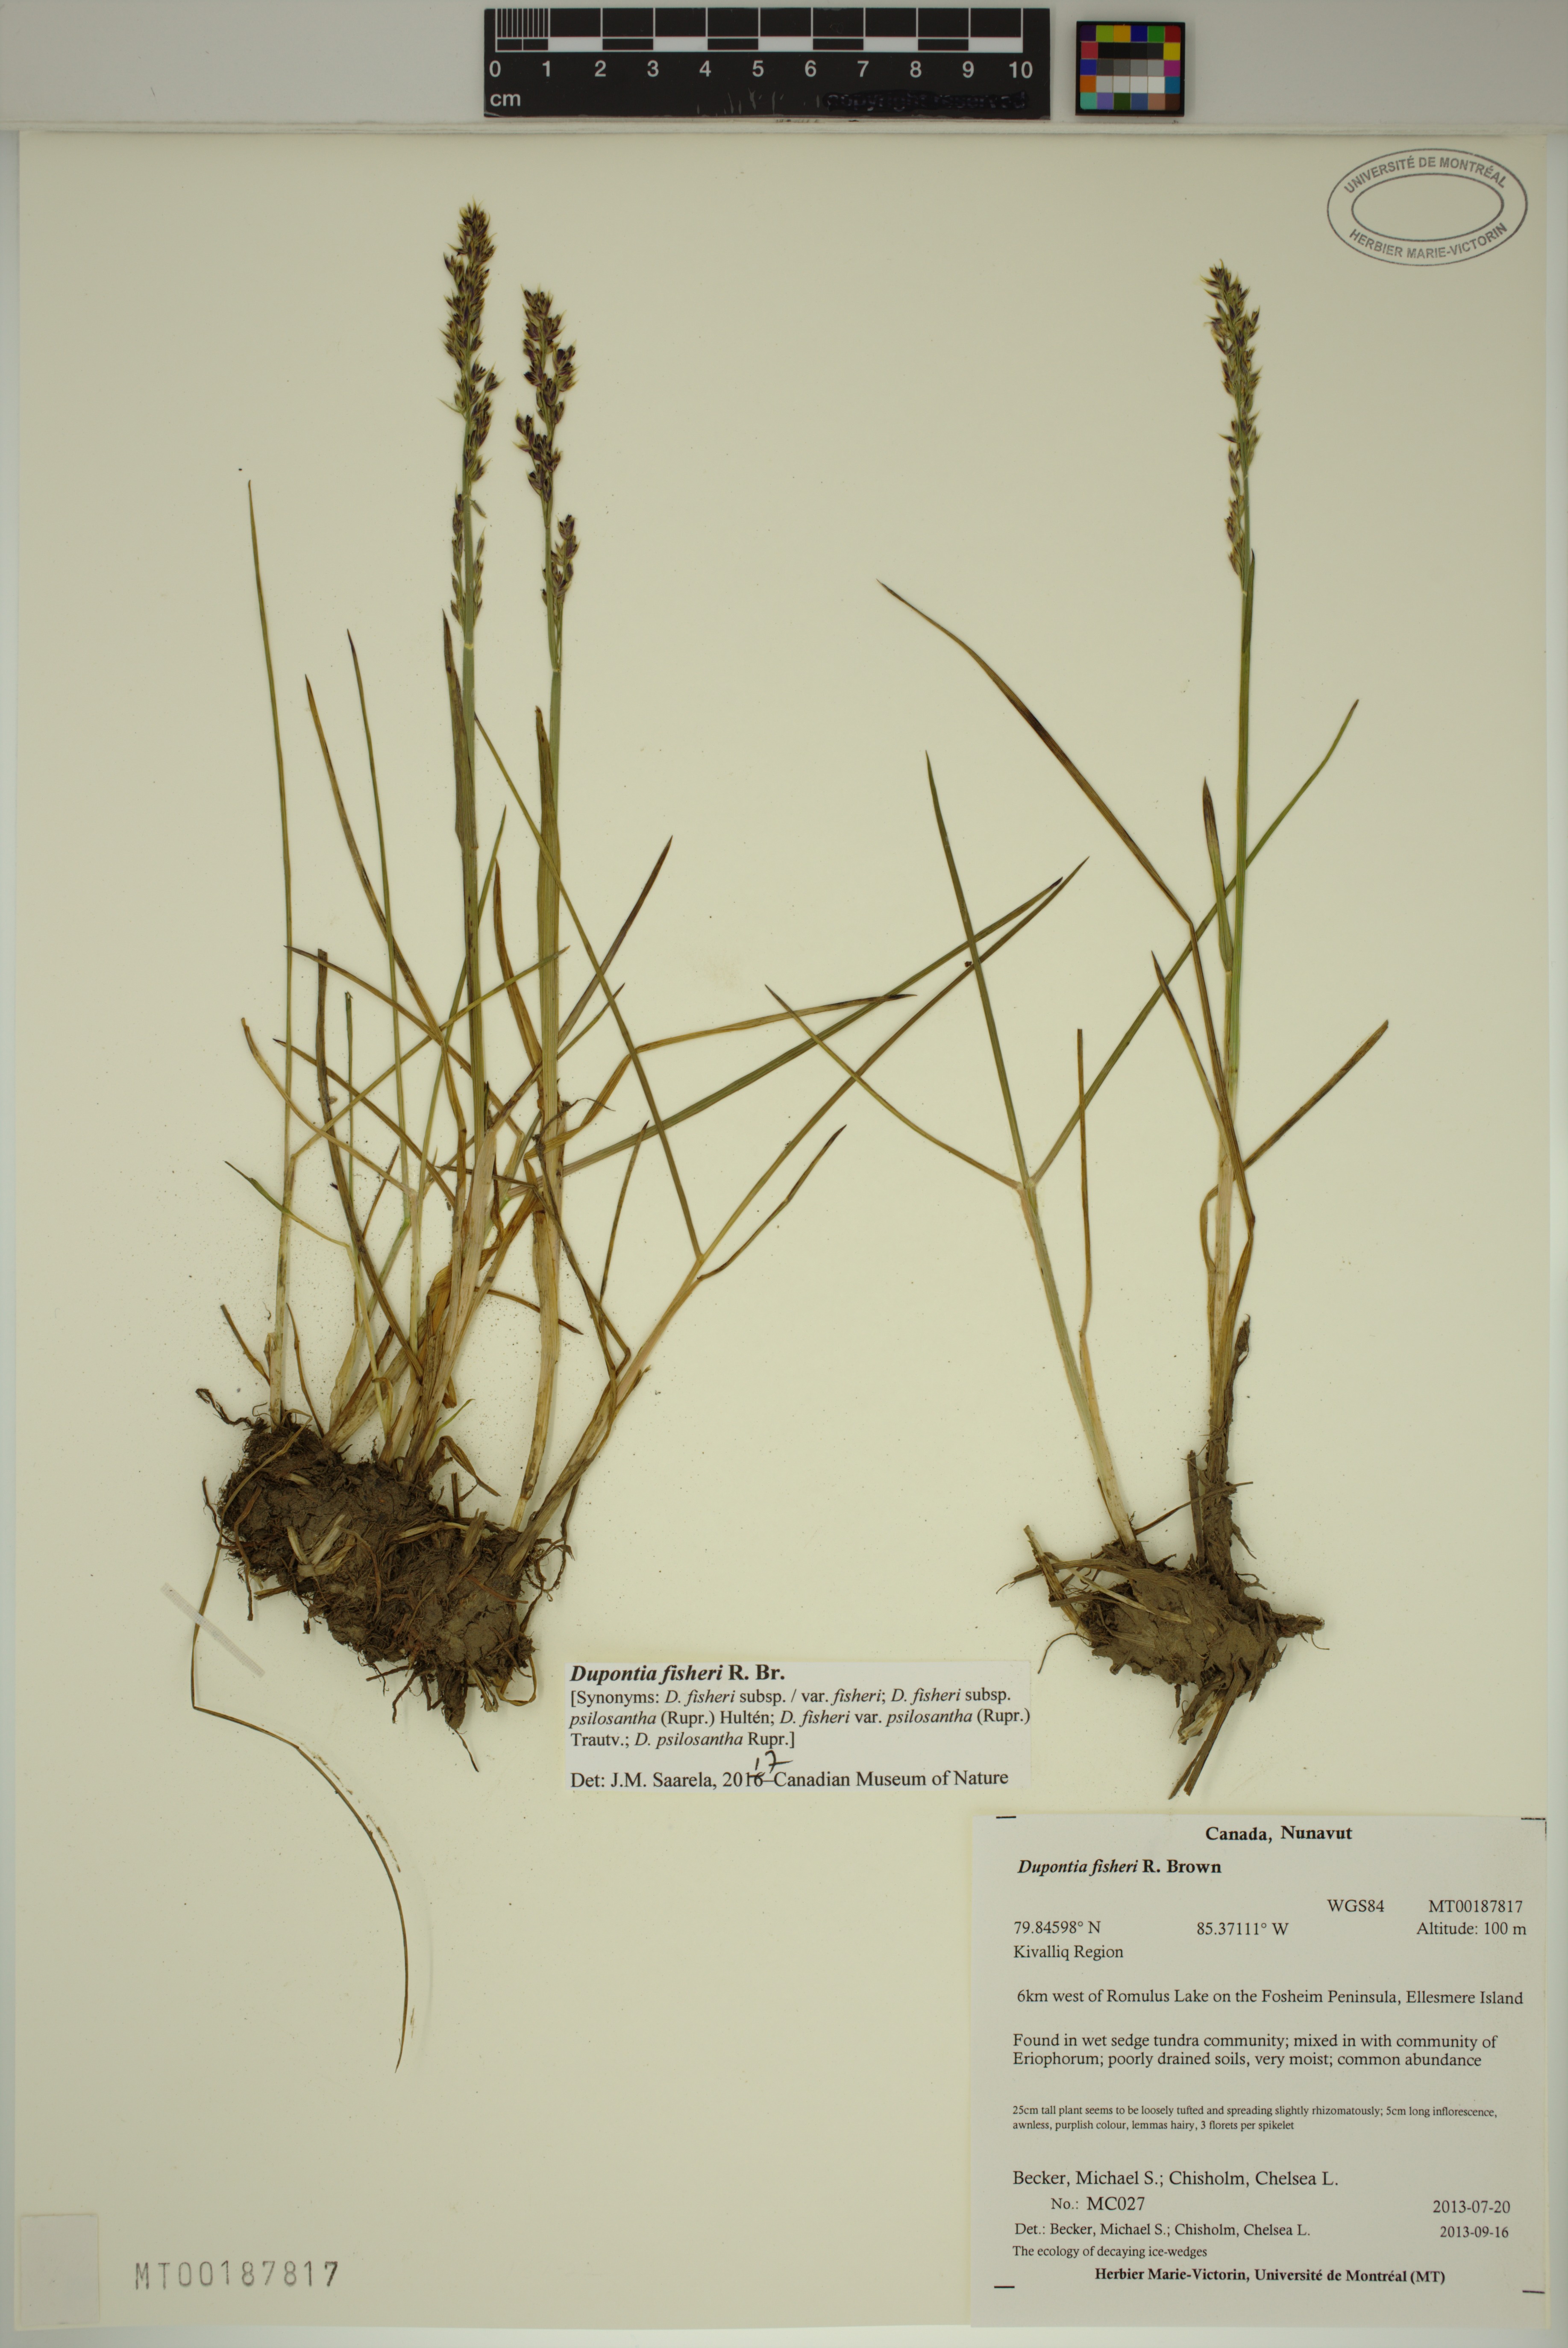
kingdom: Plantae
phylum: Tracheophyta
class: Liliopsida
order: Poales
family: Poaceae
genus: Dupontia
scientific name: Dupontia fisheri
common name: Tundra grass
